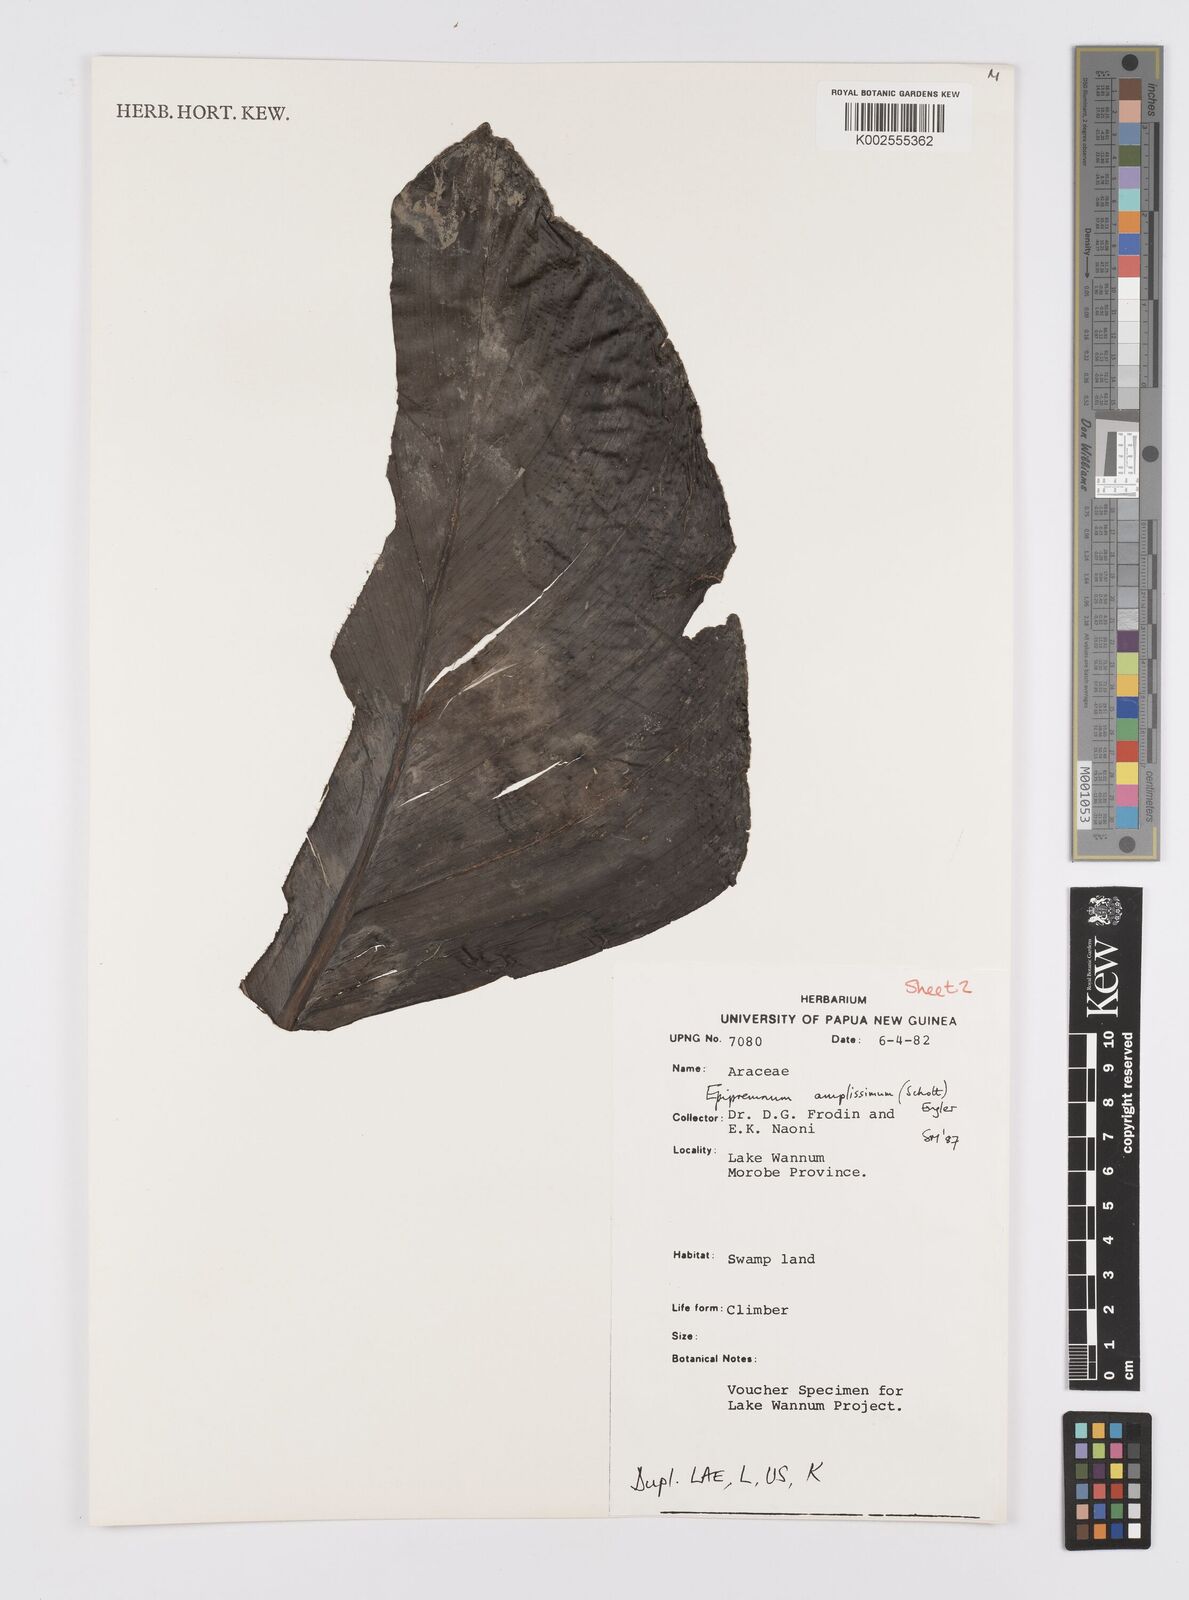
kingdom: Plantae
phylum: Tracheophyta
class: Liliopsida
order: Alismatales
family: Araceae
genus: Epipremnum
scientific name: Epipremnum amplissimum
